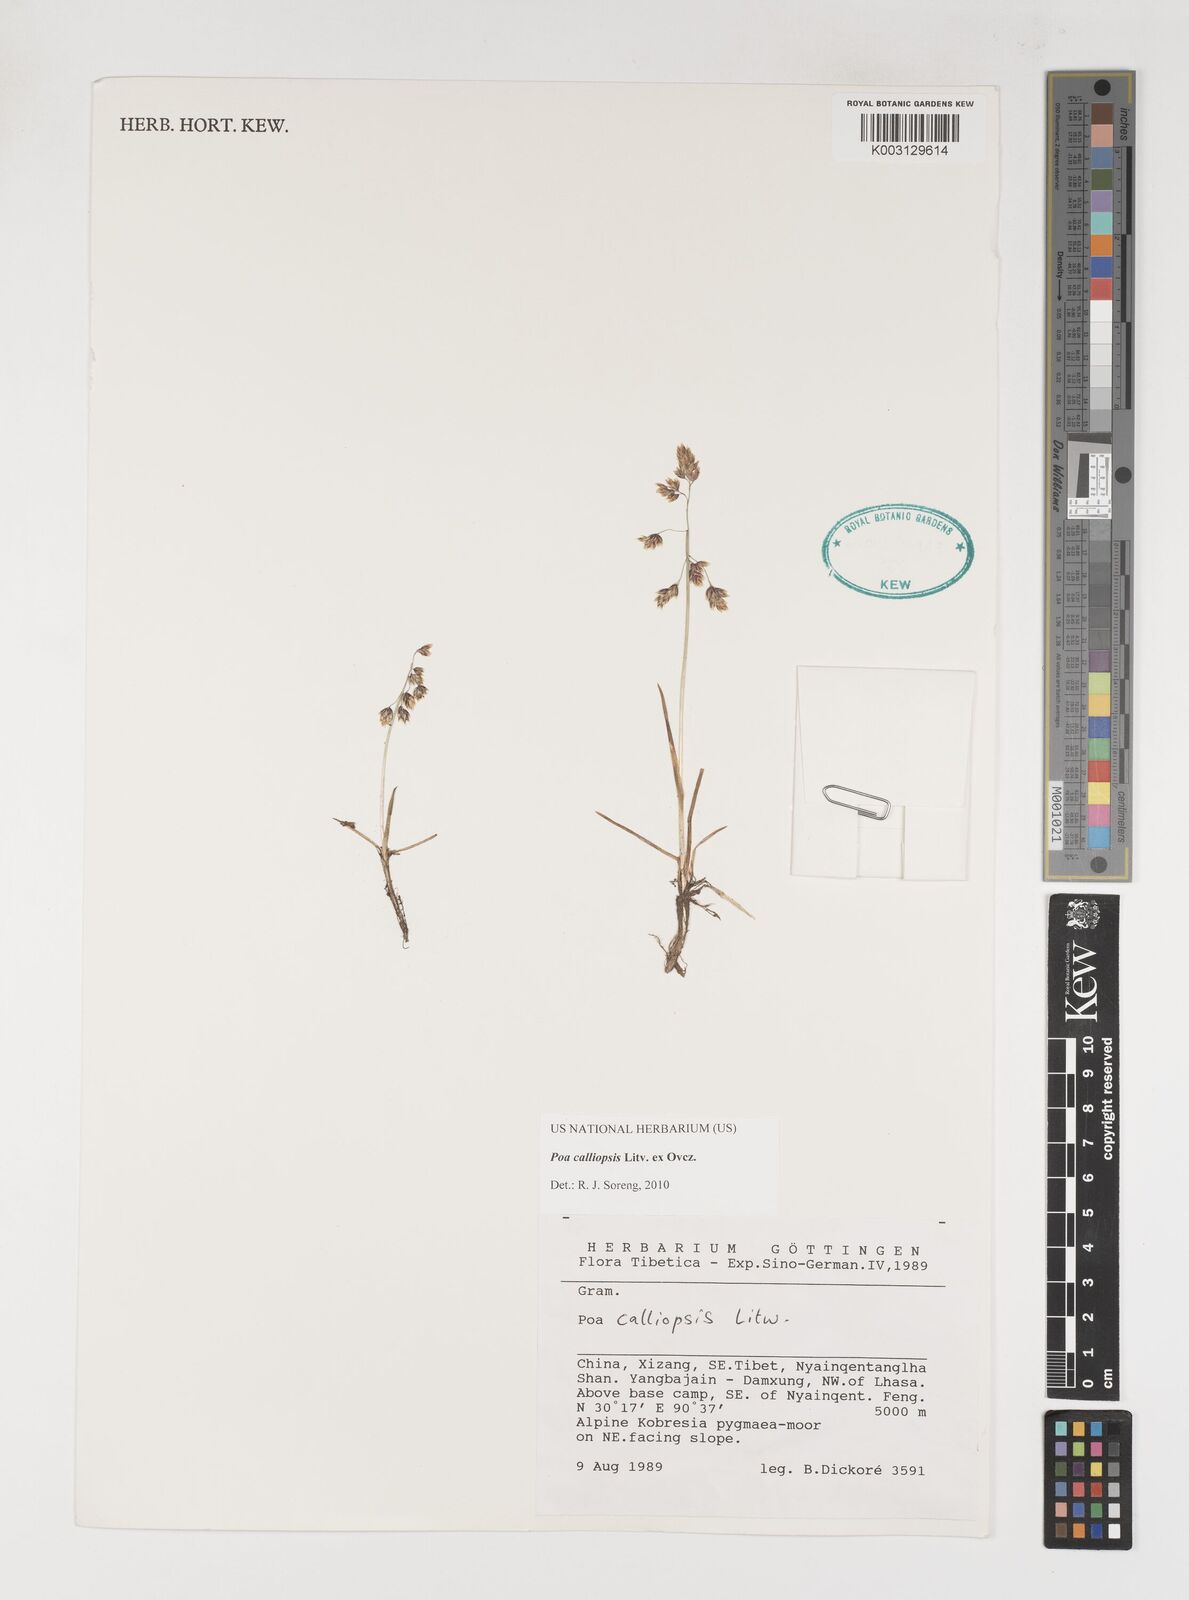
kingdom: Plantae
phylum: Tracheophyta
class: Liliopsida
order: Poales
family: Poaceae
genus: Poa
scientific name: Poa calliopsis
